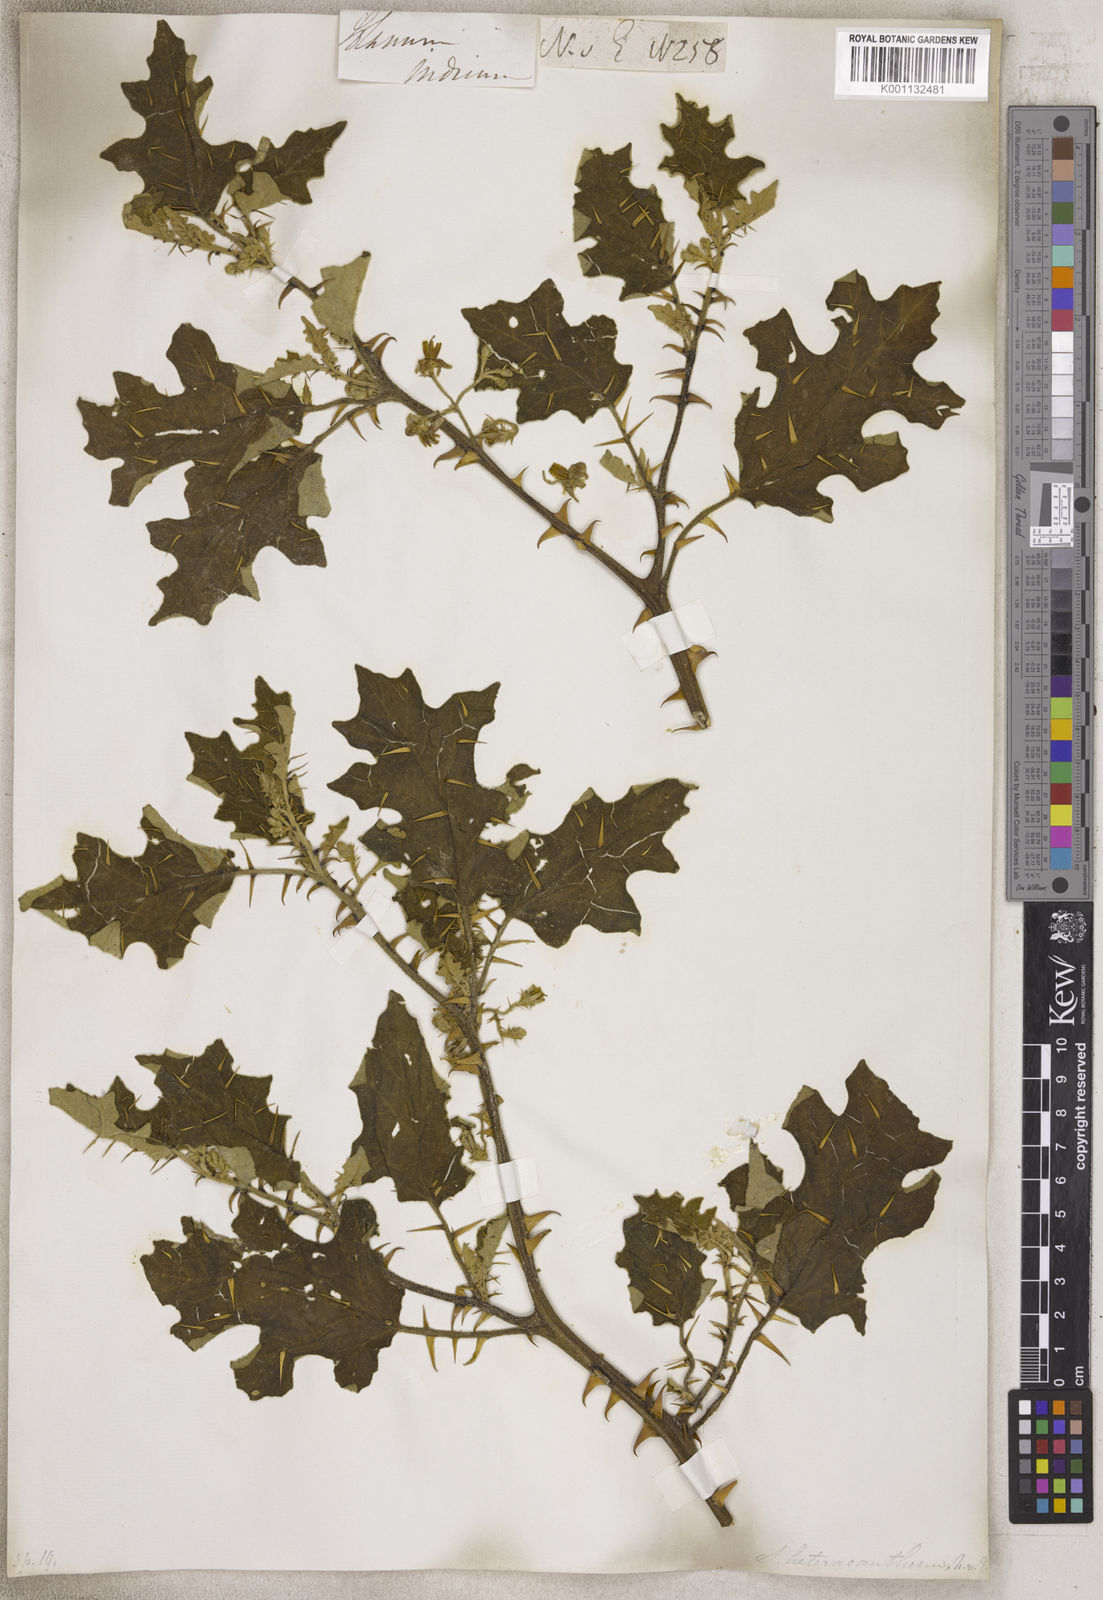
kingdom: Plantae
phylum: Tracheophyta
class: Magnoliopsida
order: Solanales
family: Solanaceae
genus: Solanum
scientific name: Solanum
